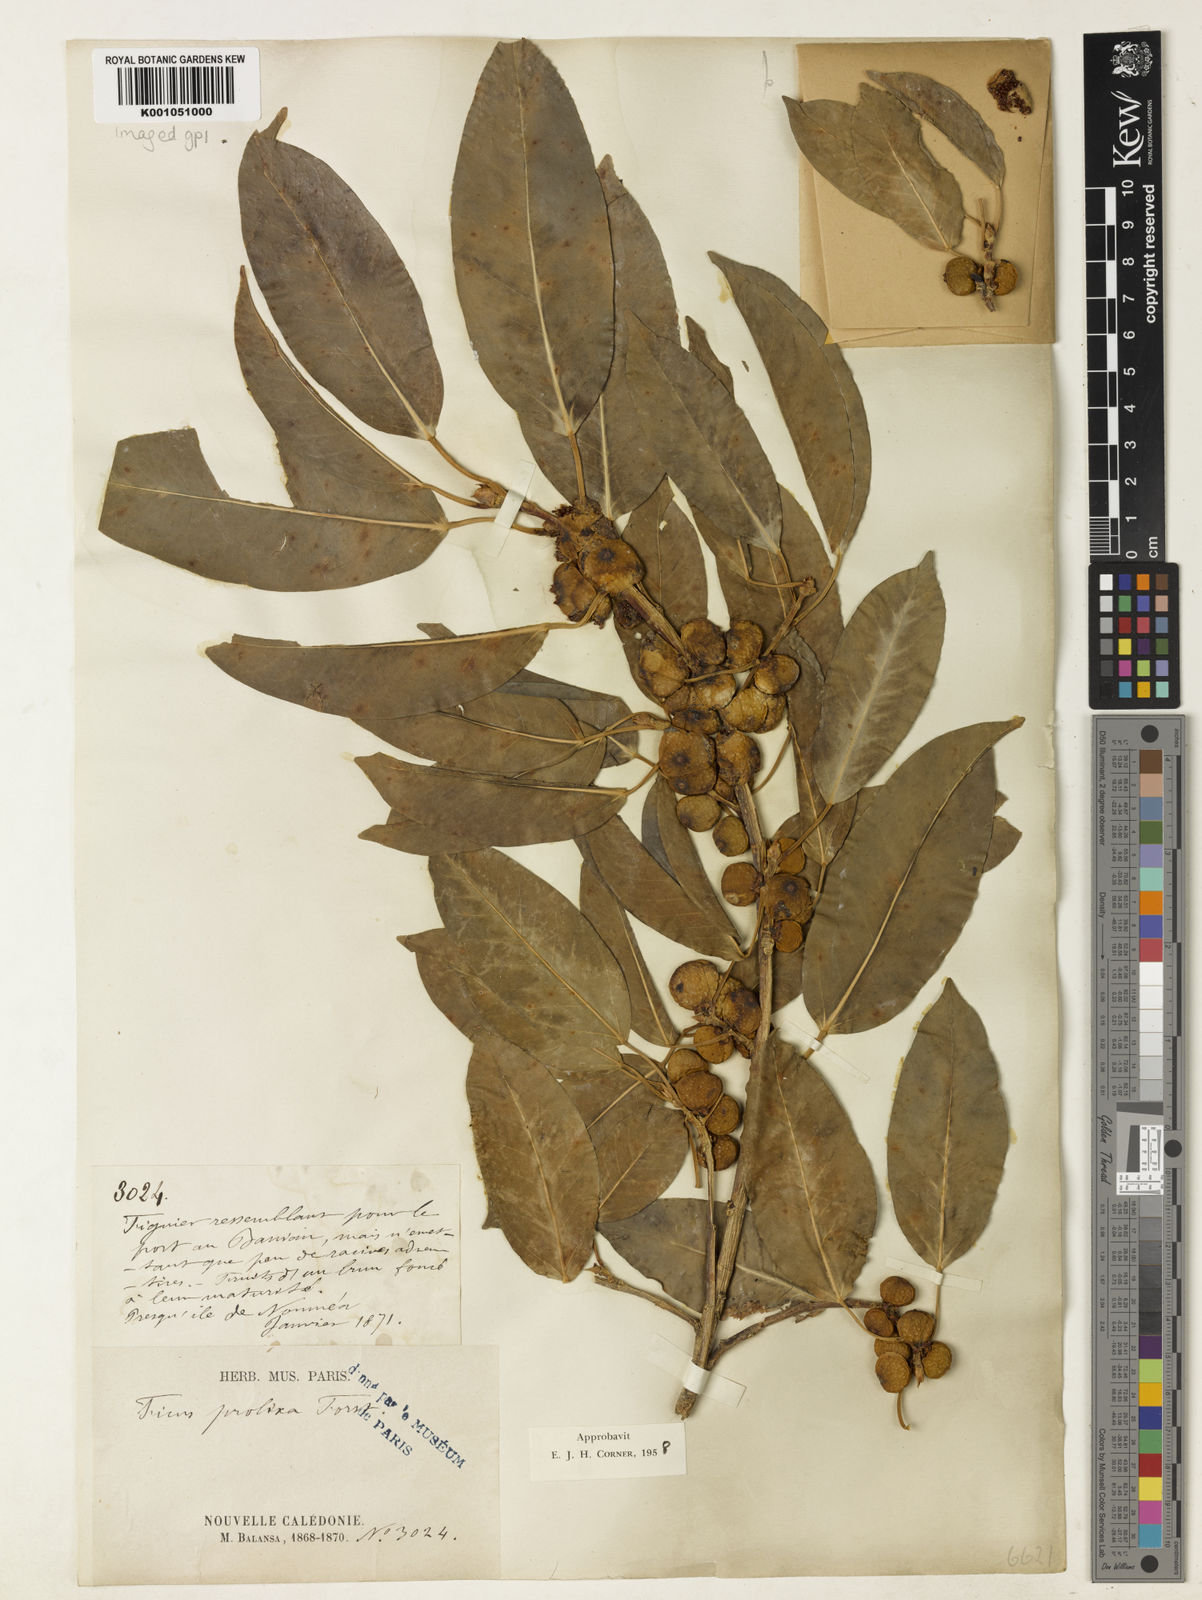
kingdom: Plantae
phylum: Tracheophyta
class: Magnoliopsida
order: Rosales
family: Moraceae
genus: Ficus
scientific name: Ficus prolixa
